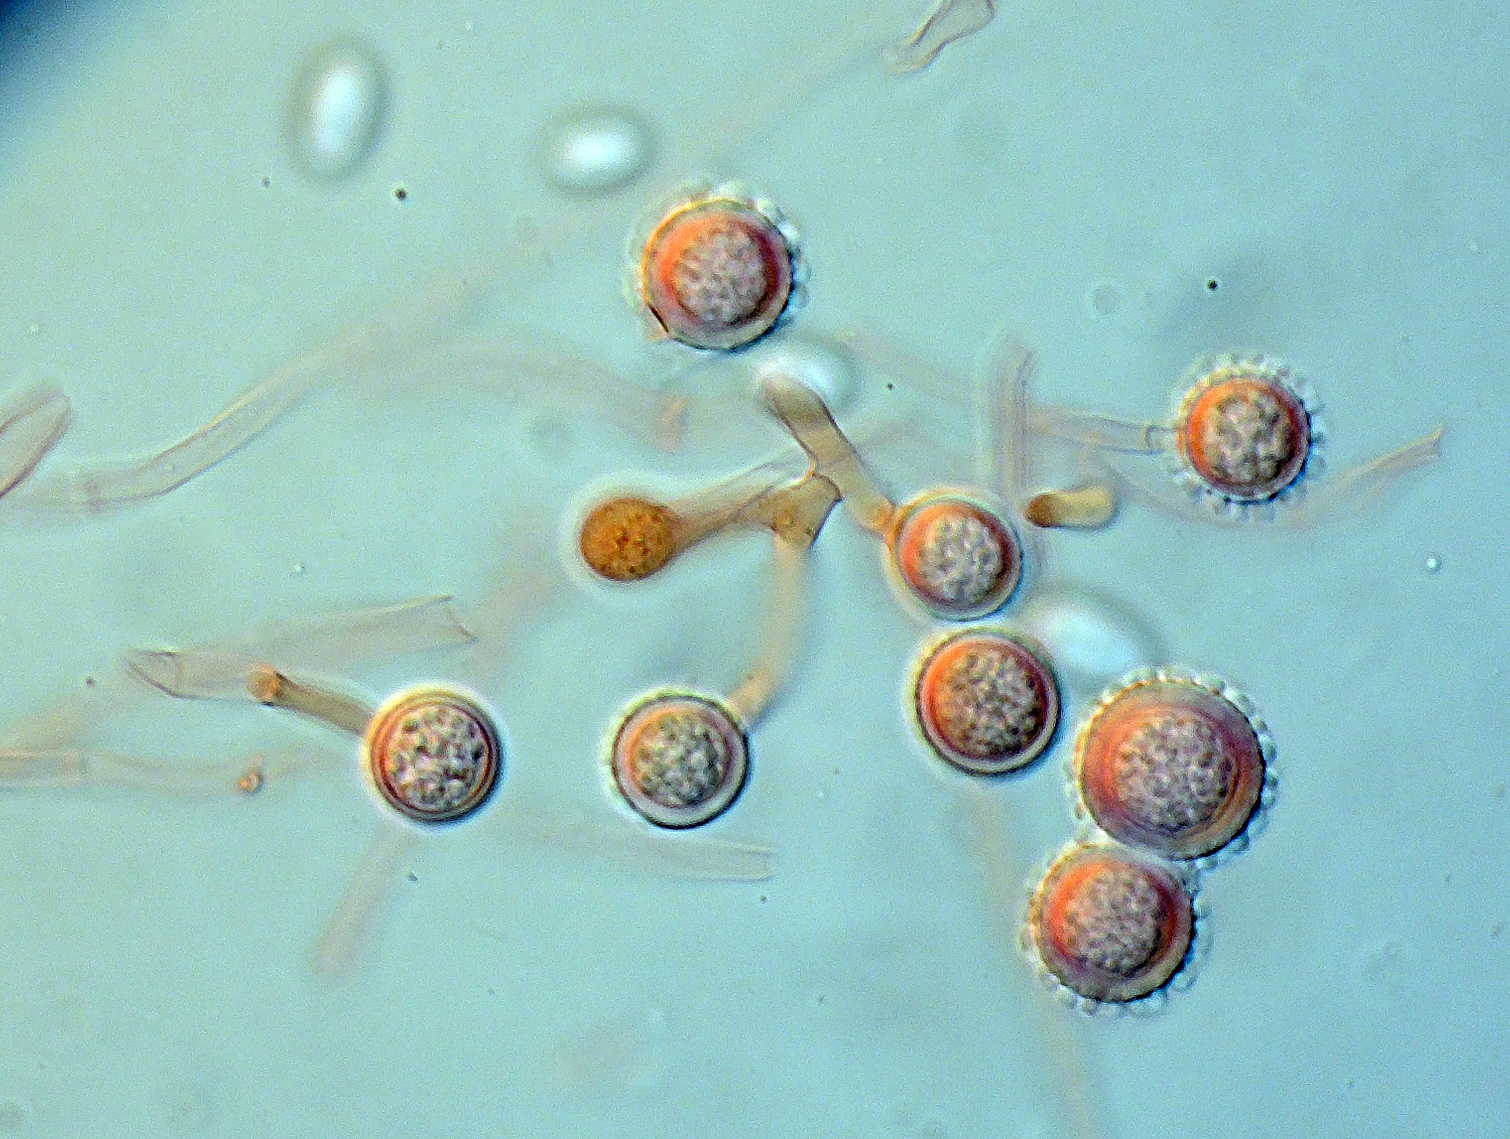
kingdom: Fungi
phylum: Ascomycota
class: Sordariomycetes
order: Hypocreales
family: Hypocreaceae
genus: Hypomyces
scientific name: Hypomyces microspermus
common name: dværgrørhat-snylteskorpe
